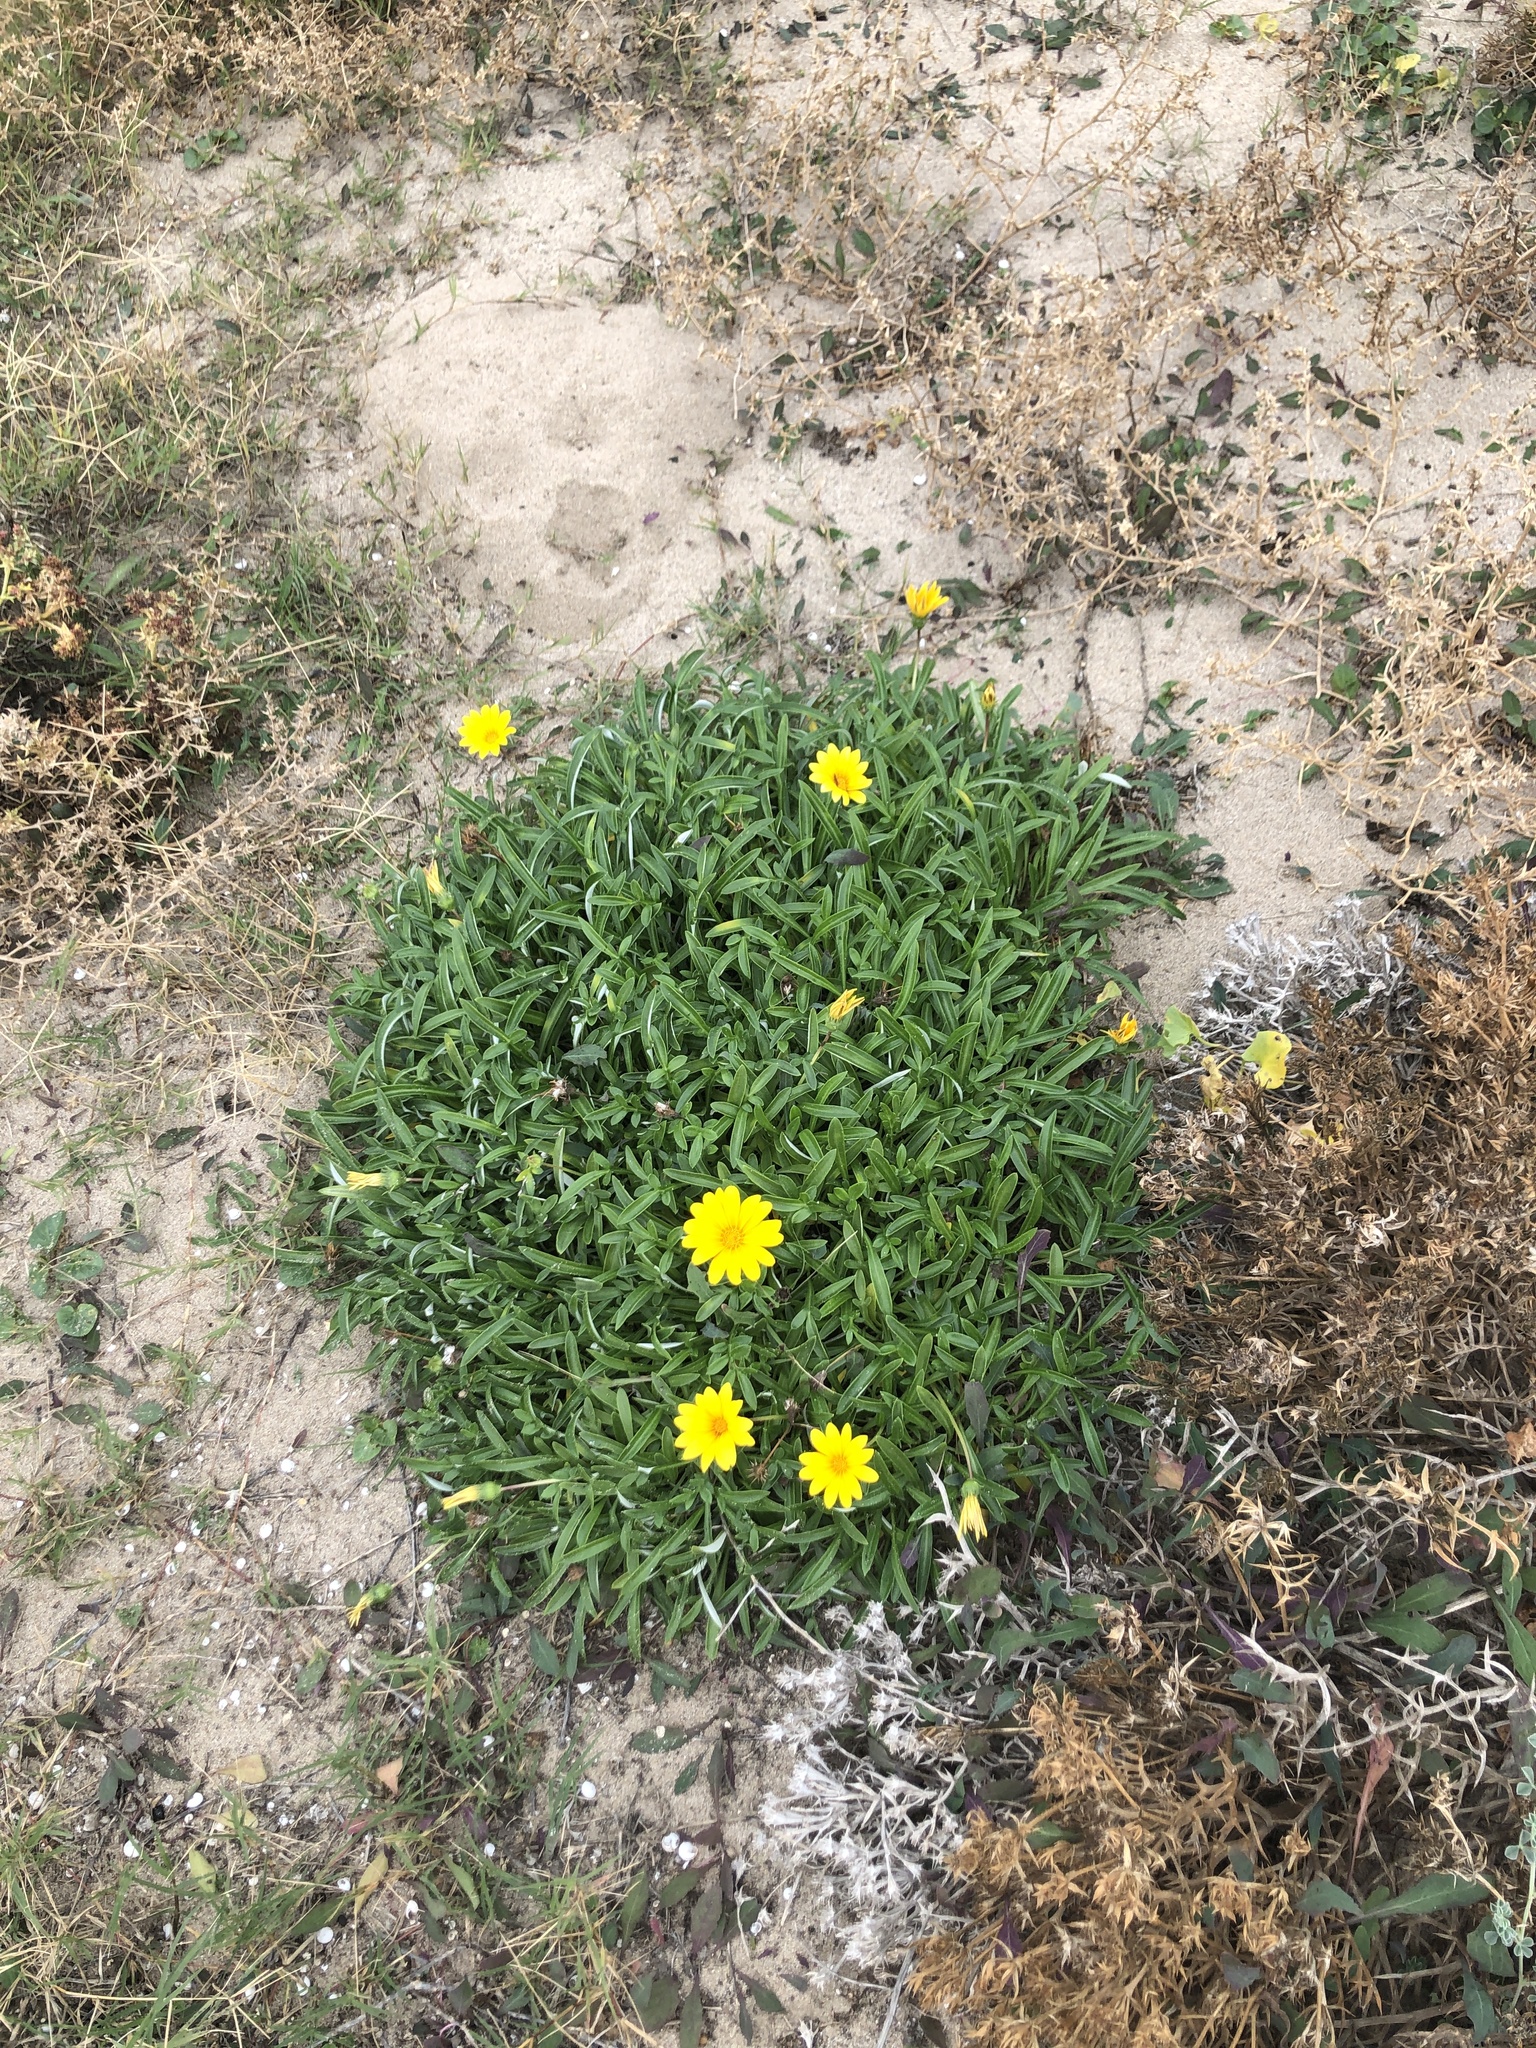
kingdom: Plantae
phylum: Tracheophyta
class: Magnoliopsida
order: Asterales
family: Asteraceae
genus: Gazania
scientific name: Gazania rigens
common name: Treasureflower
